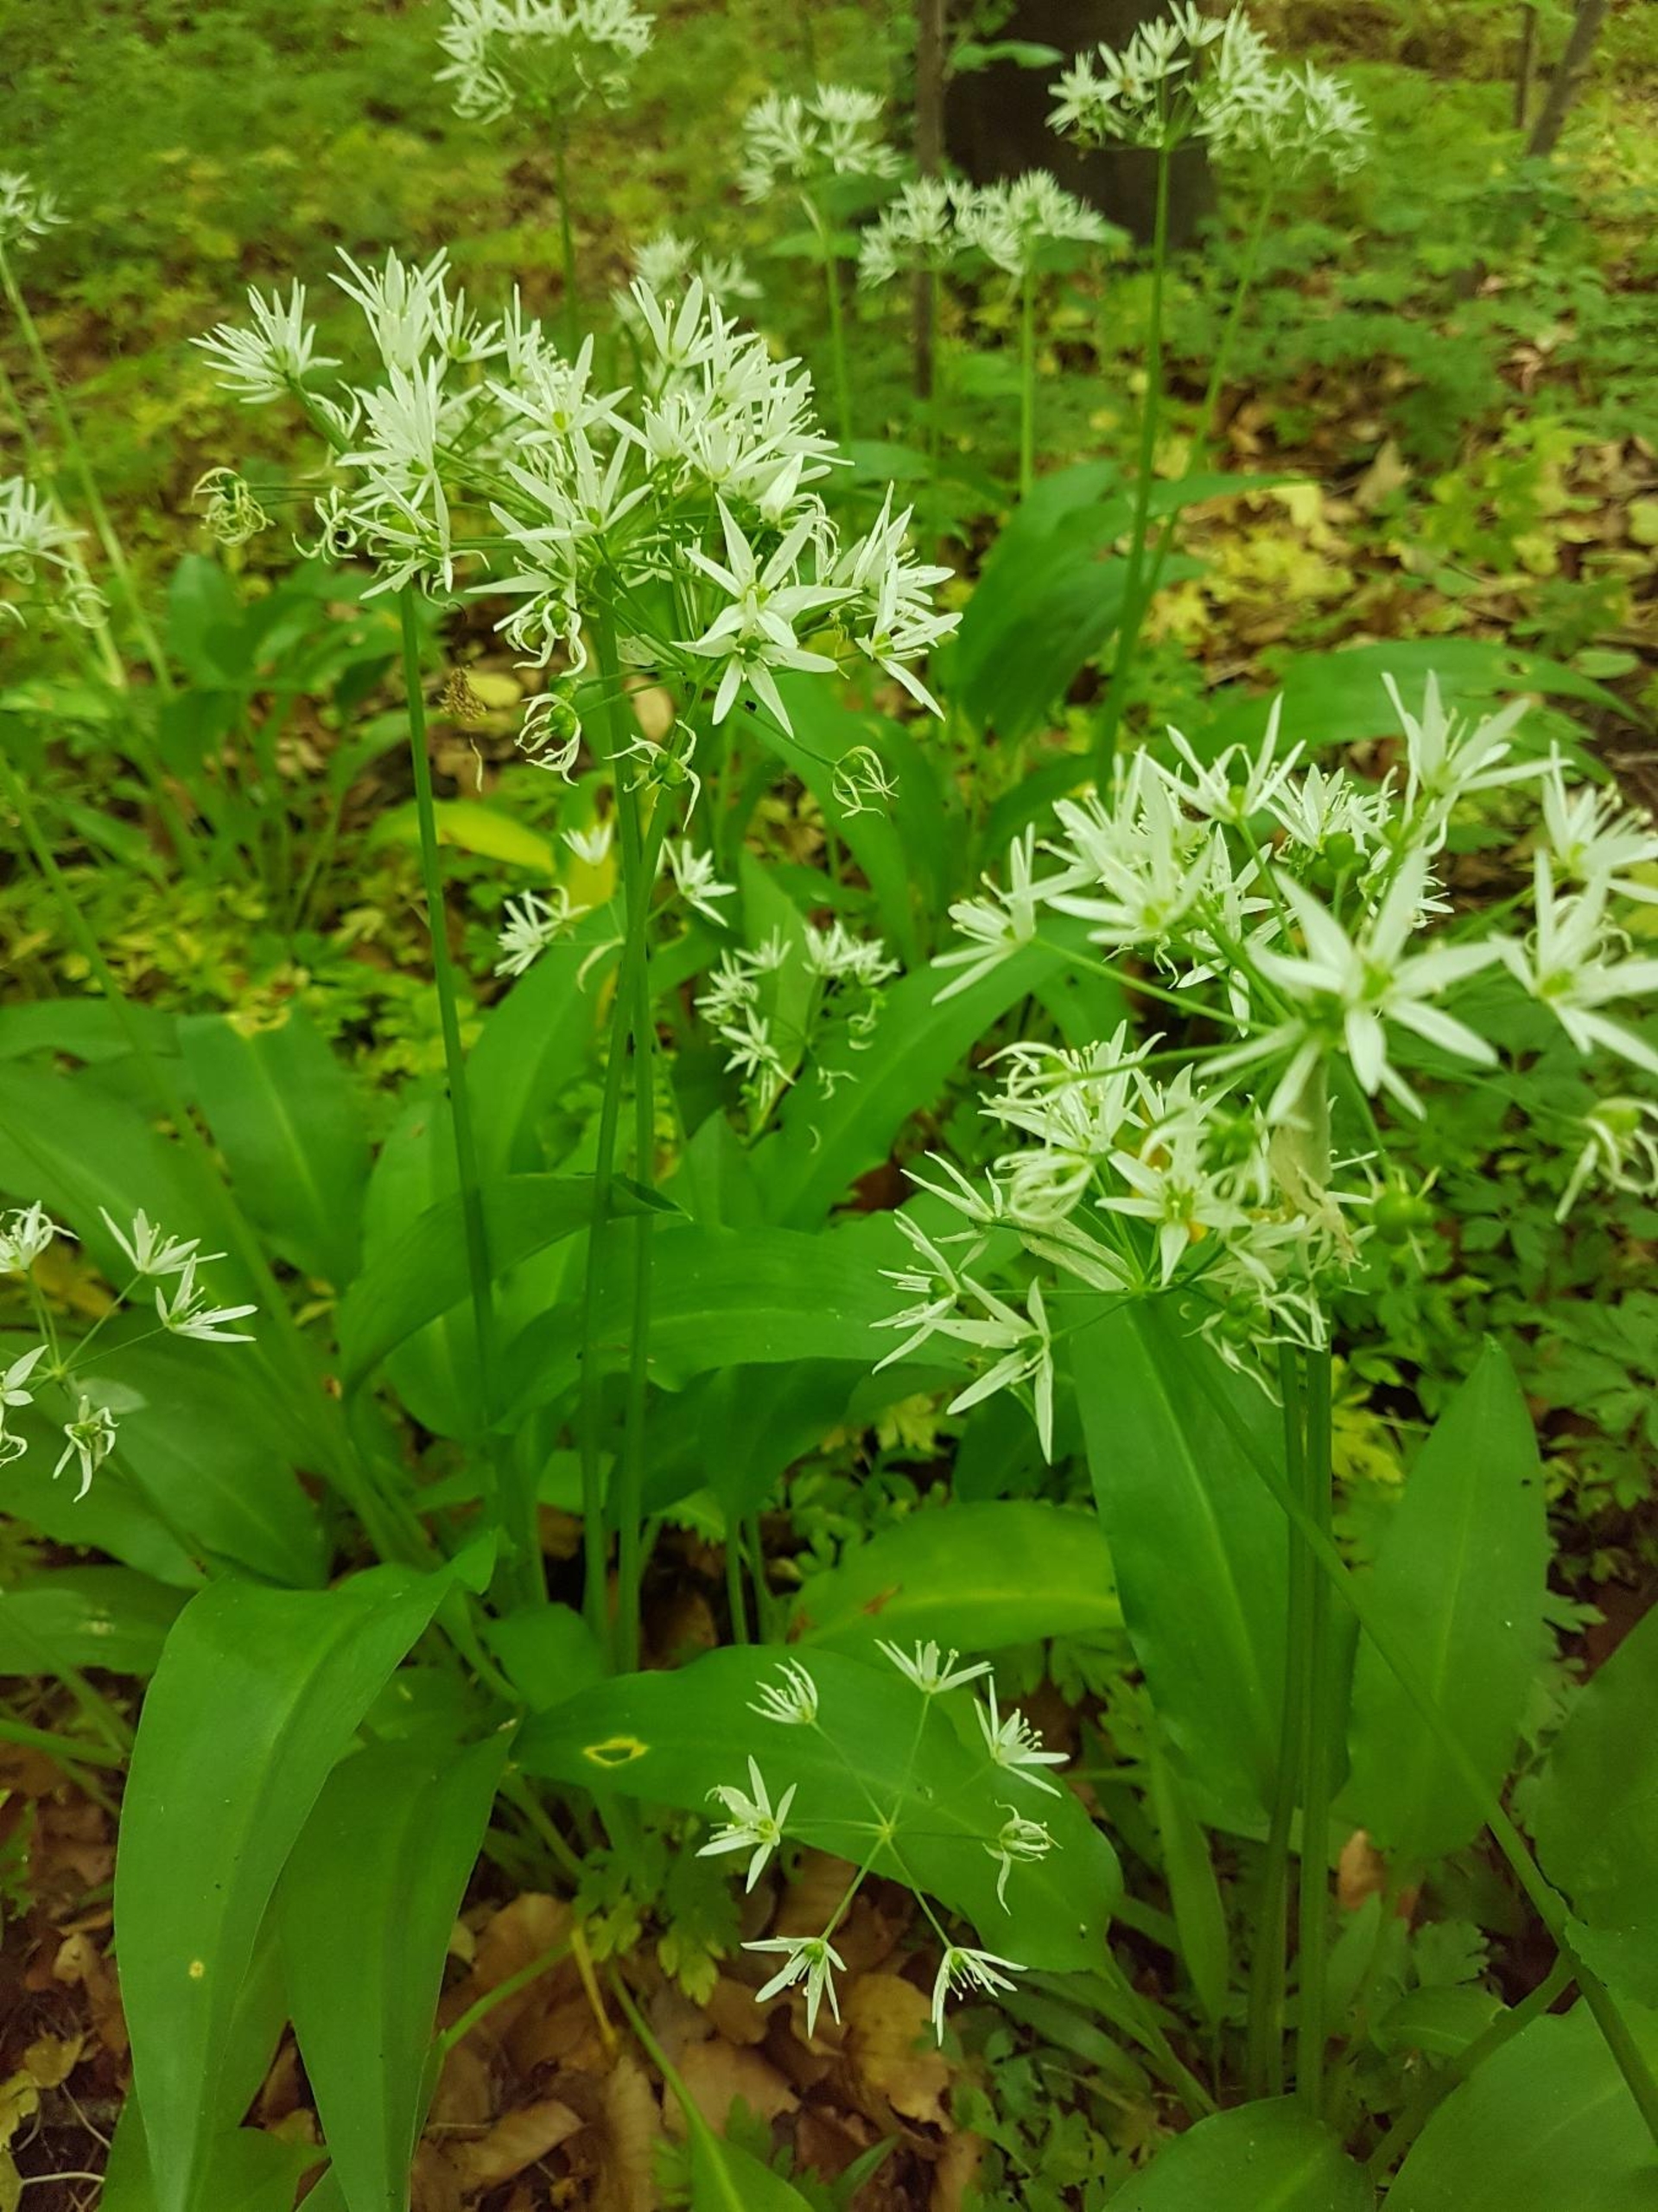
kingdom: Plantae
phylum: Tracheophyta
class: Liliopsida
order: Asparagales
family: Amaryllidaceae
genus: Allium
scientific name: Allium ursinum
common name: Rams-løg
